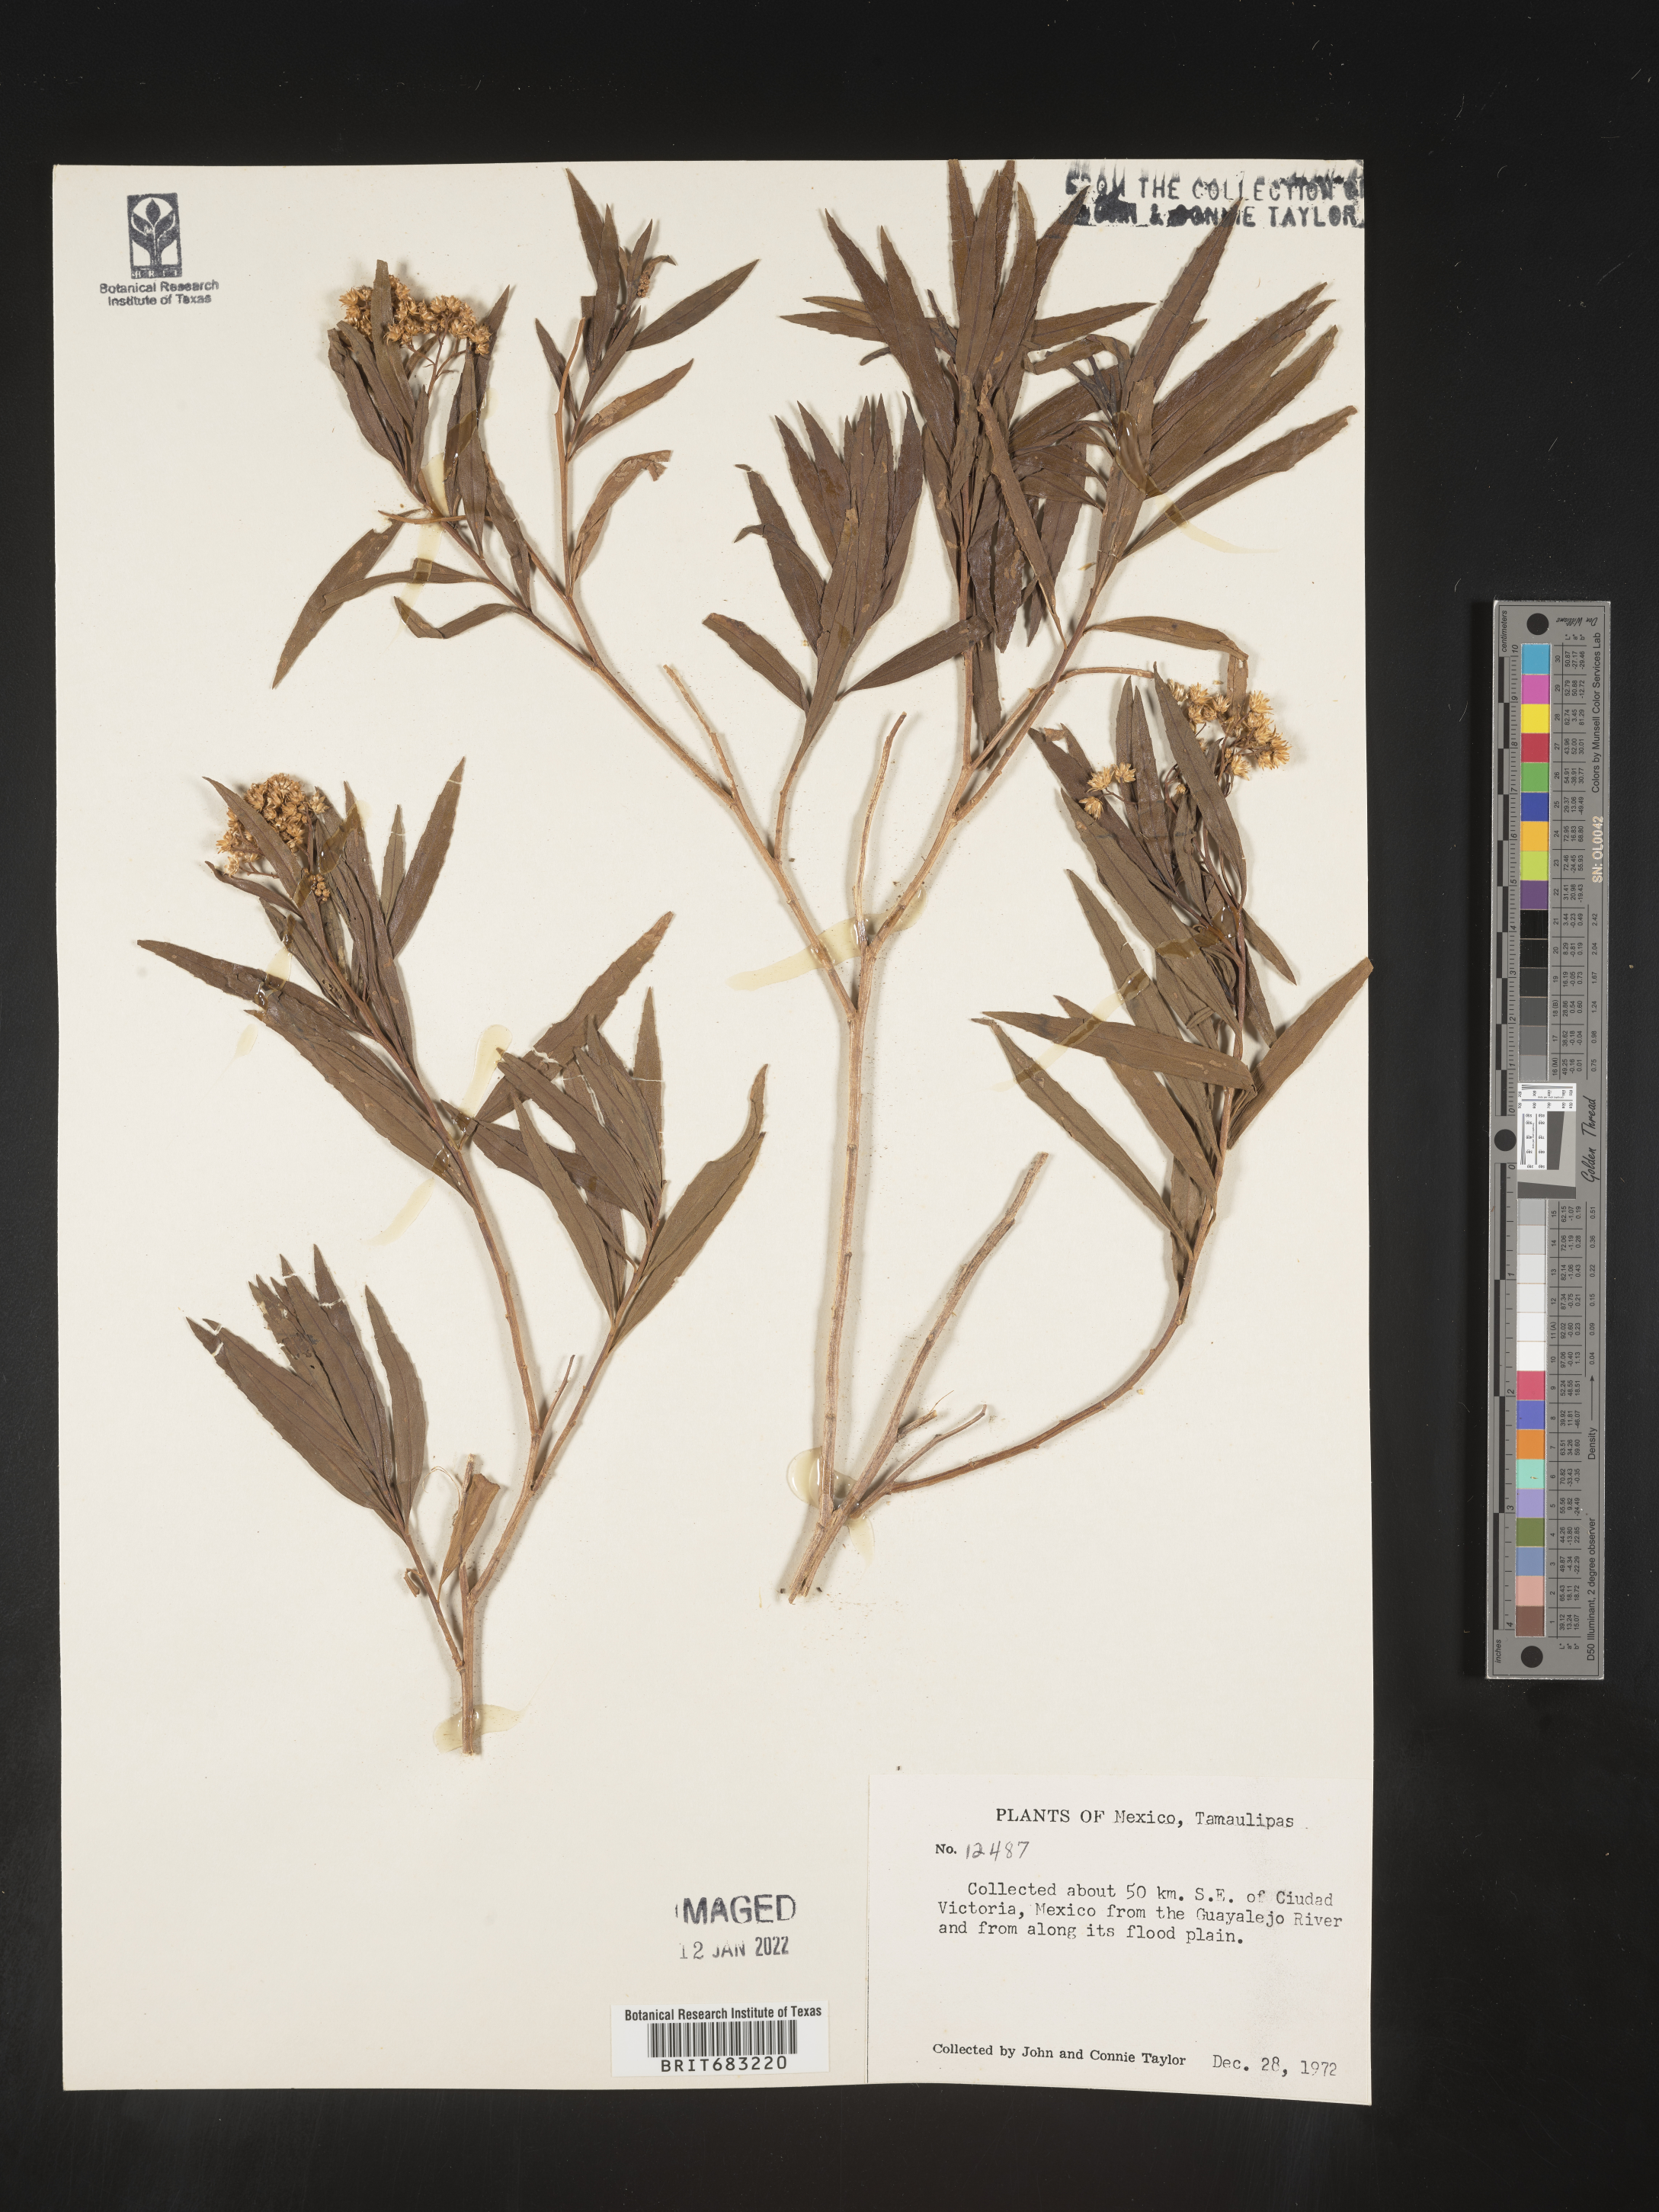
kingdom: Plantae
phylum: Tracheophyta
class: Magnoliopsida
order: Asterales
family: Asteraceae
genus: Baccharis
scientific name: Baccharis salicifolia
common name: Sticky baccharis
